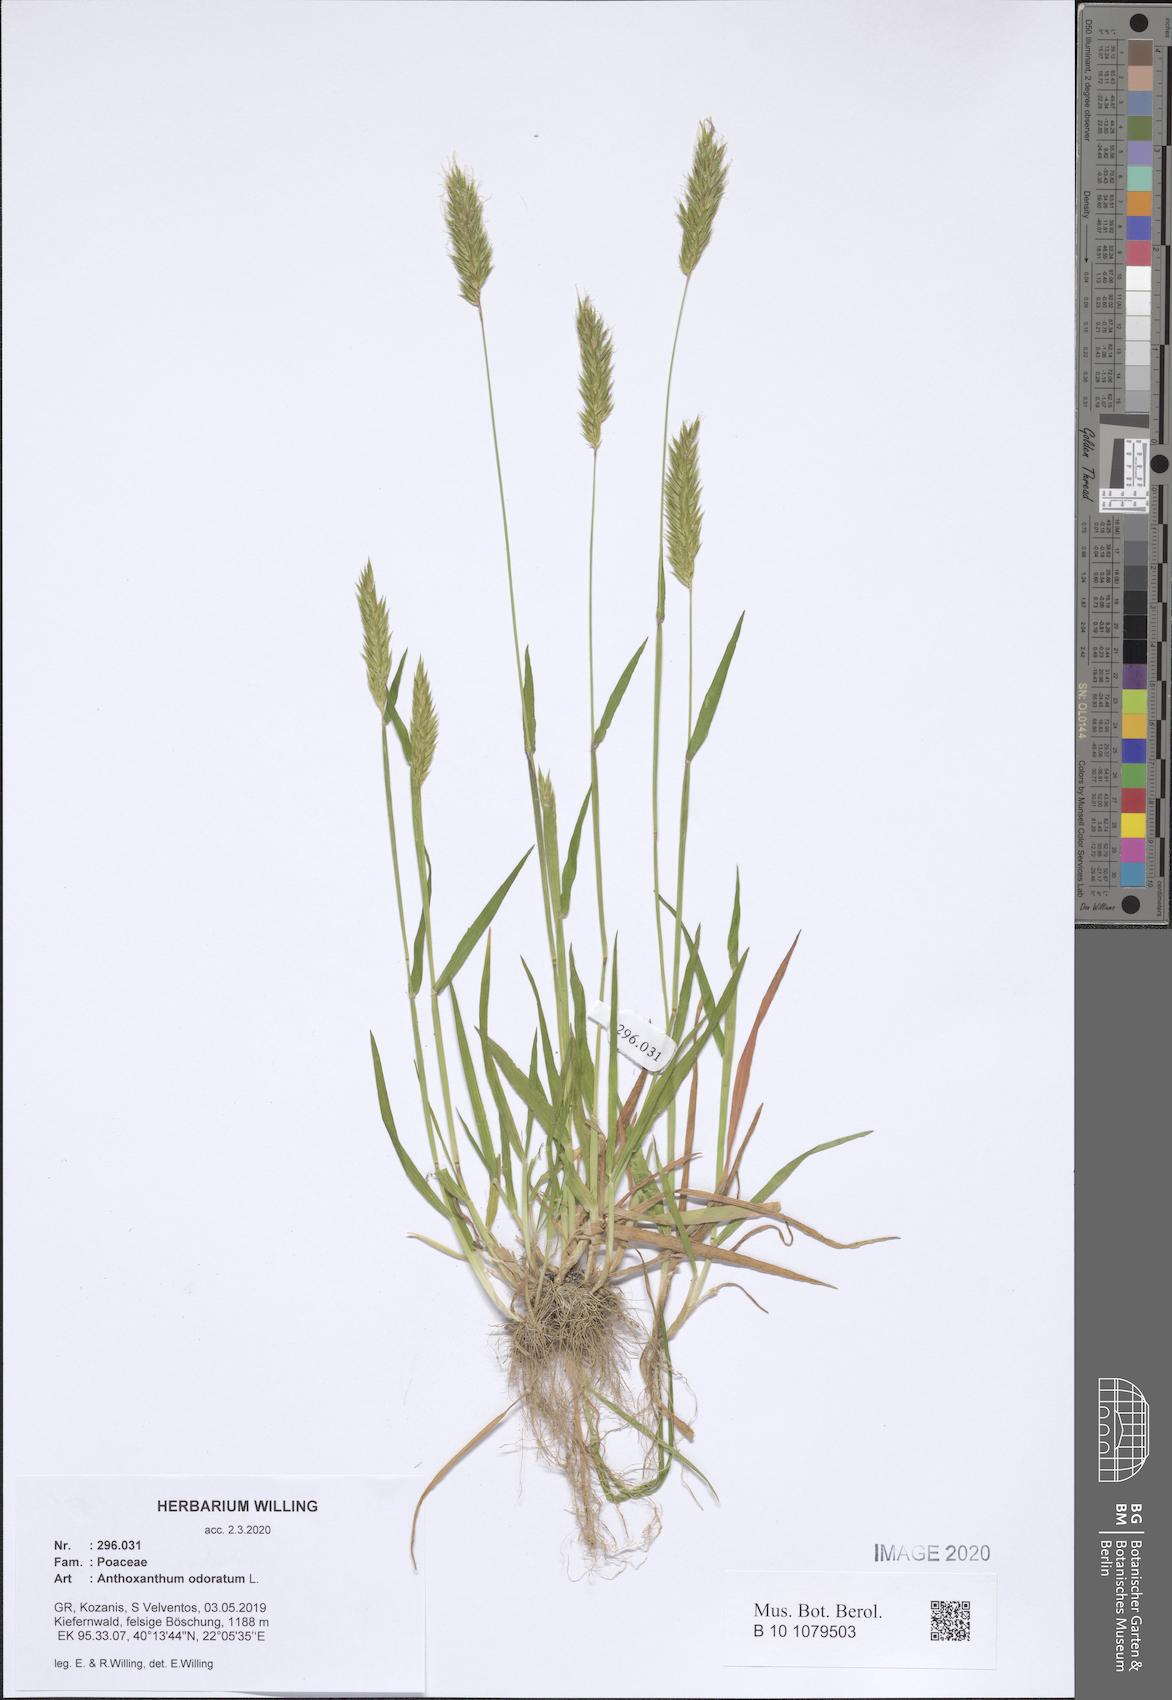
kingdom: Plantae
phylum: Tracheophyta
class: Liliopsida
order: Poales
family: Poaceae
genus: Anthoxanthum
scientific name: Anthoxanthum odoratum
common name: Sweet vernalgrass
